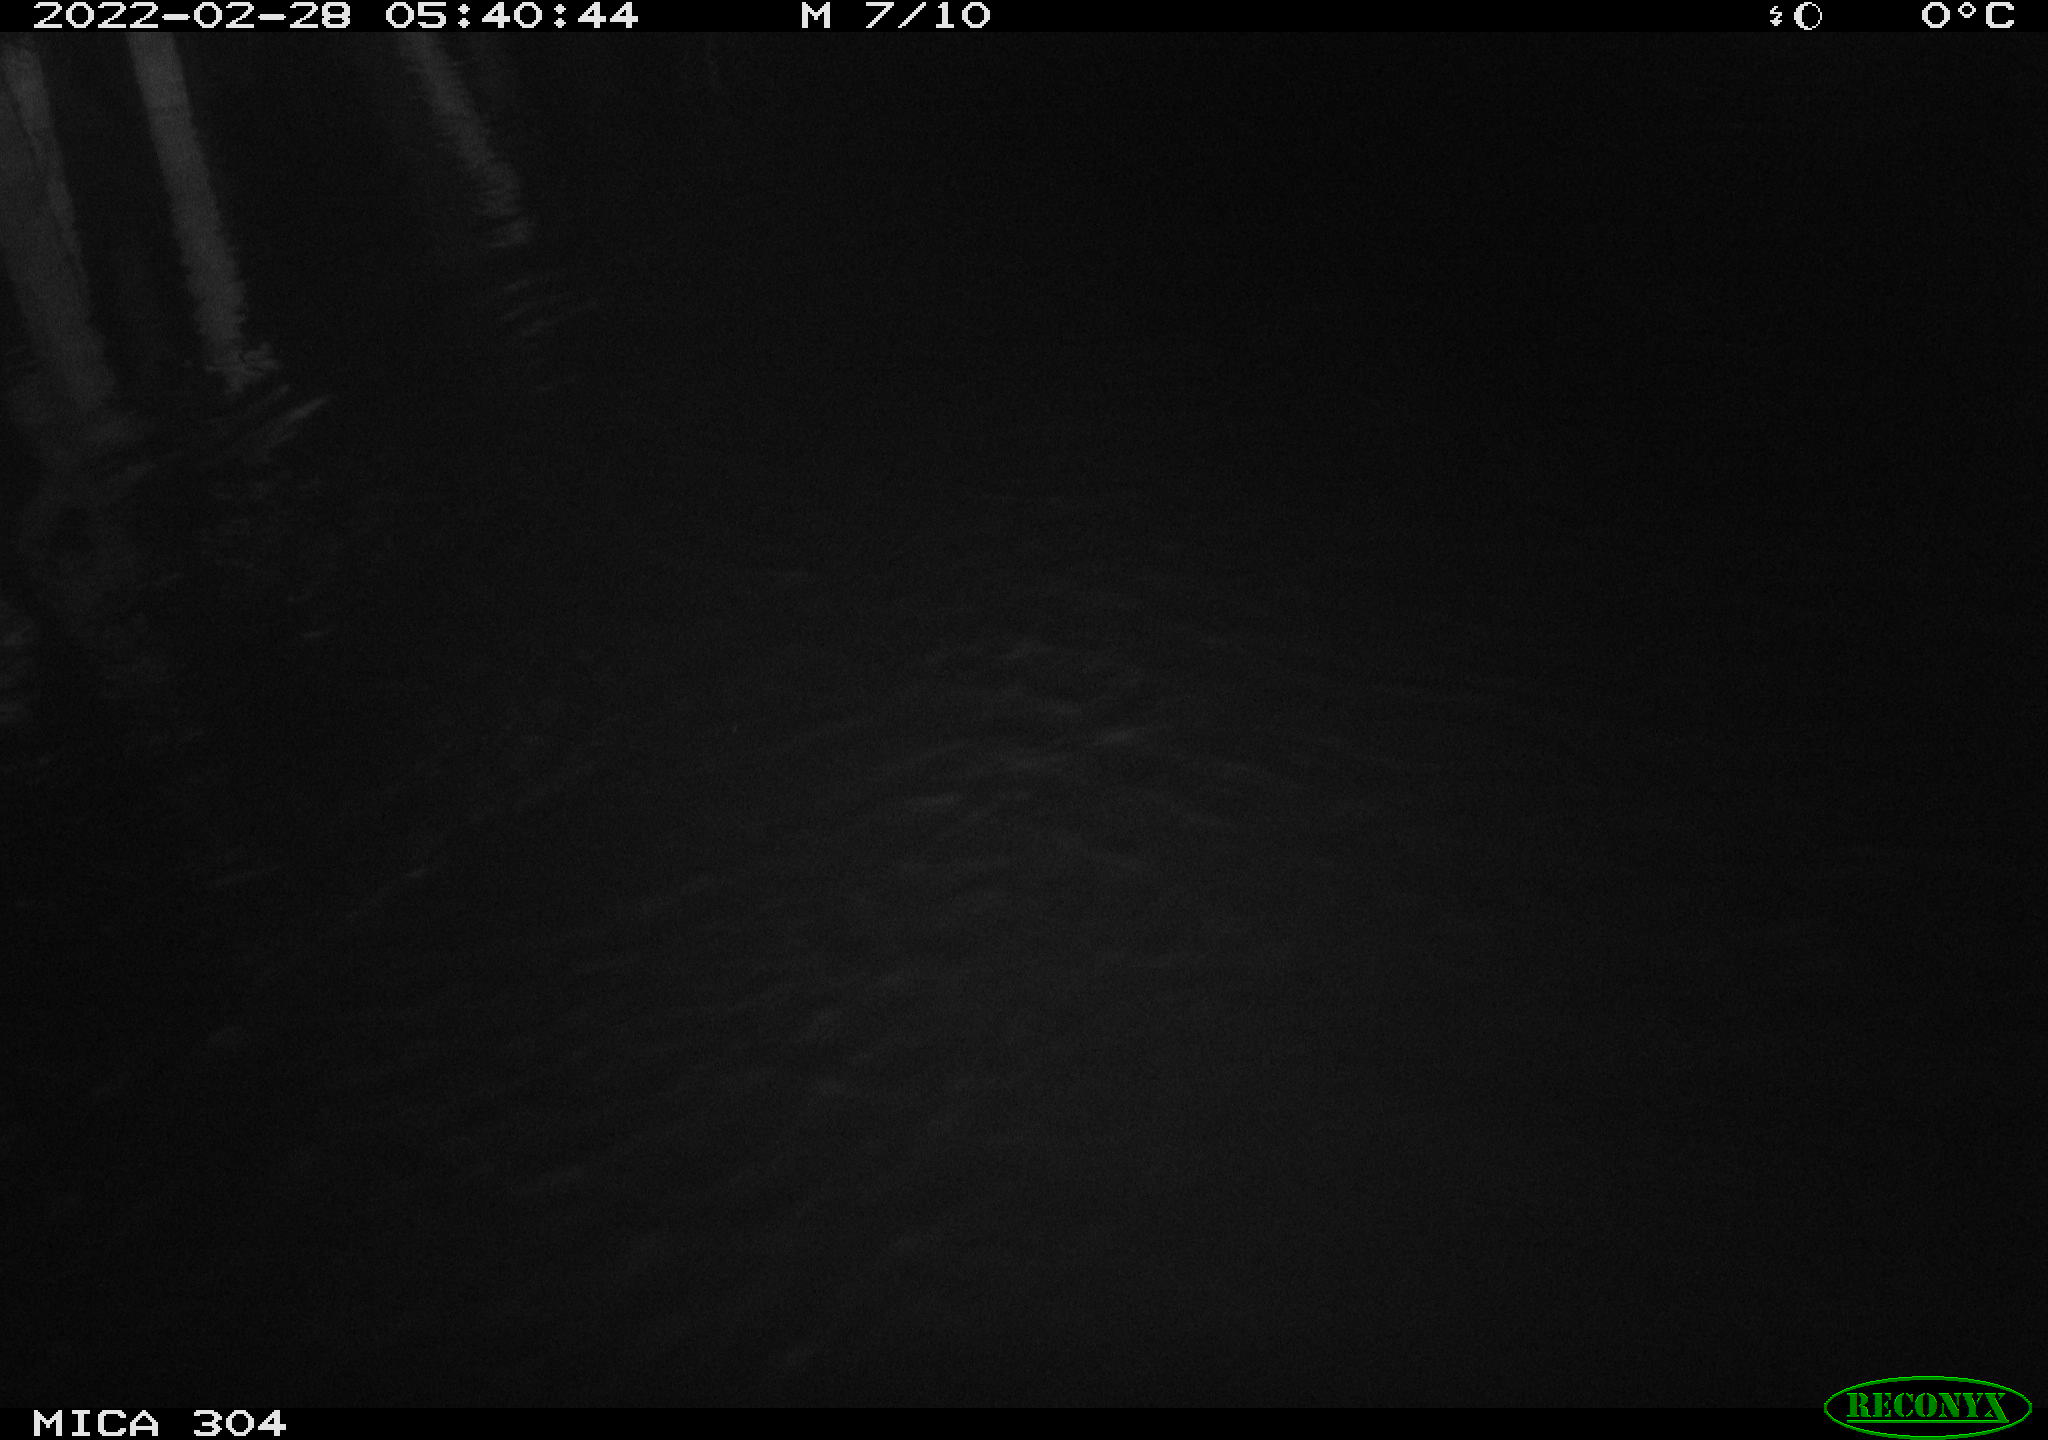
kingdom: Animalia
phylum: Chordata
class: Mammalia
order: Rodentia
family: Cricetidae
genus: Ondatra
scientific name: Ondatra zibethicus
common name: Muskrat
